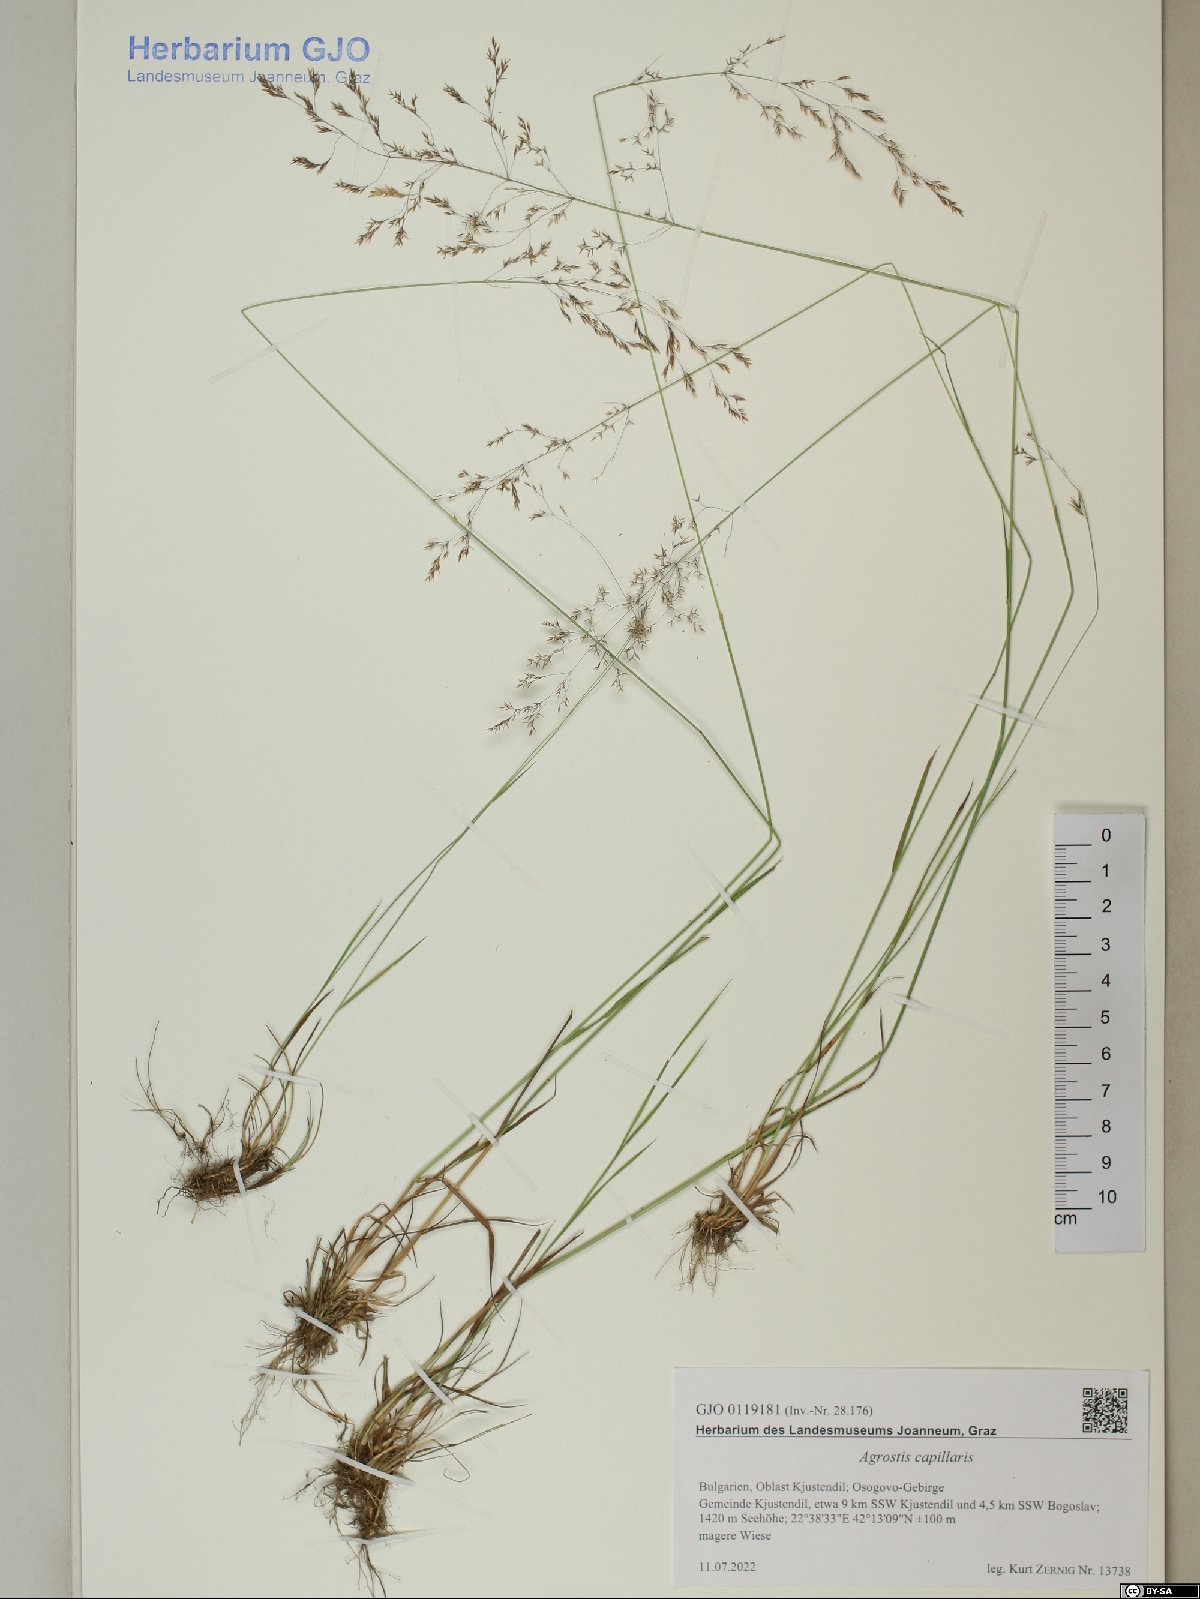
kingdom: Plantae
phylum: Tracheophyta
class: Liliopsida
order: Poales
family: Poaceae
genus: Agrostis
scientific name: Agrostis capillaris
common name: Colonial bentgrass
